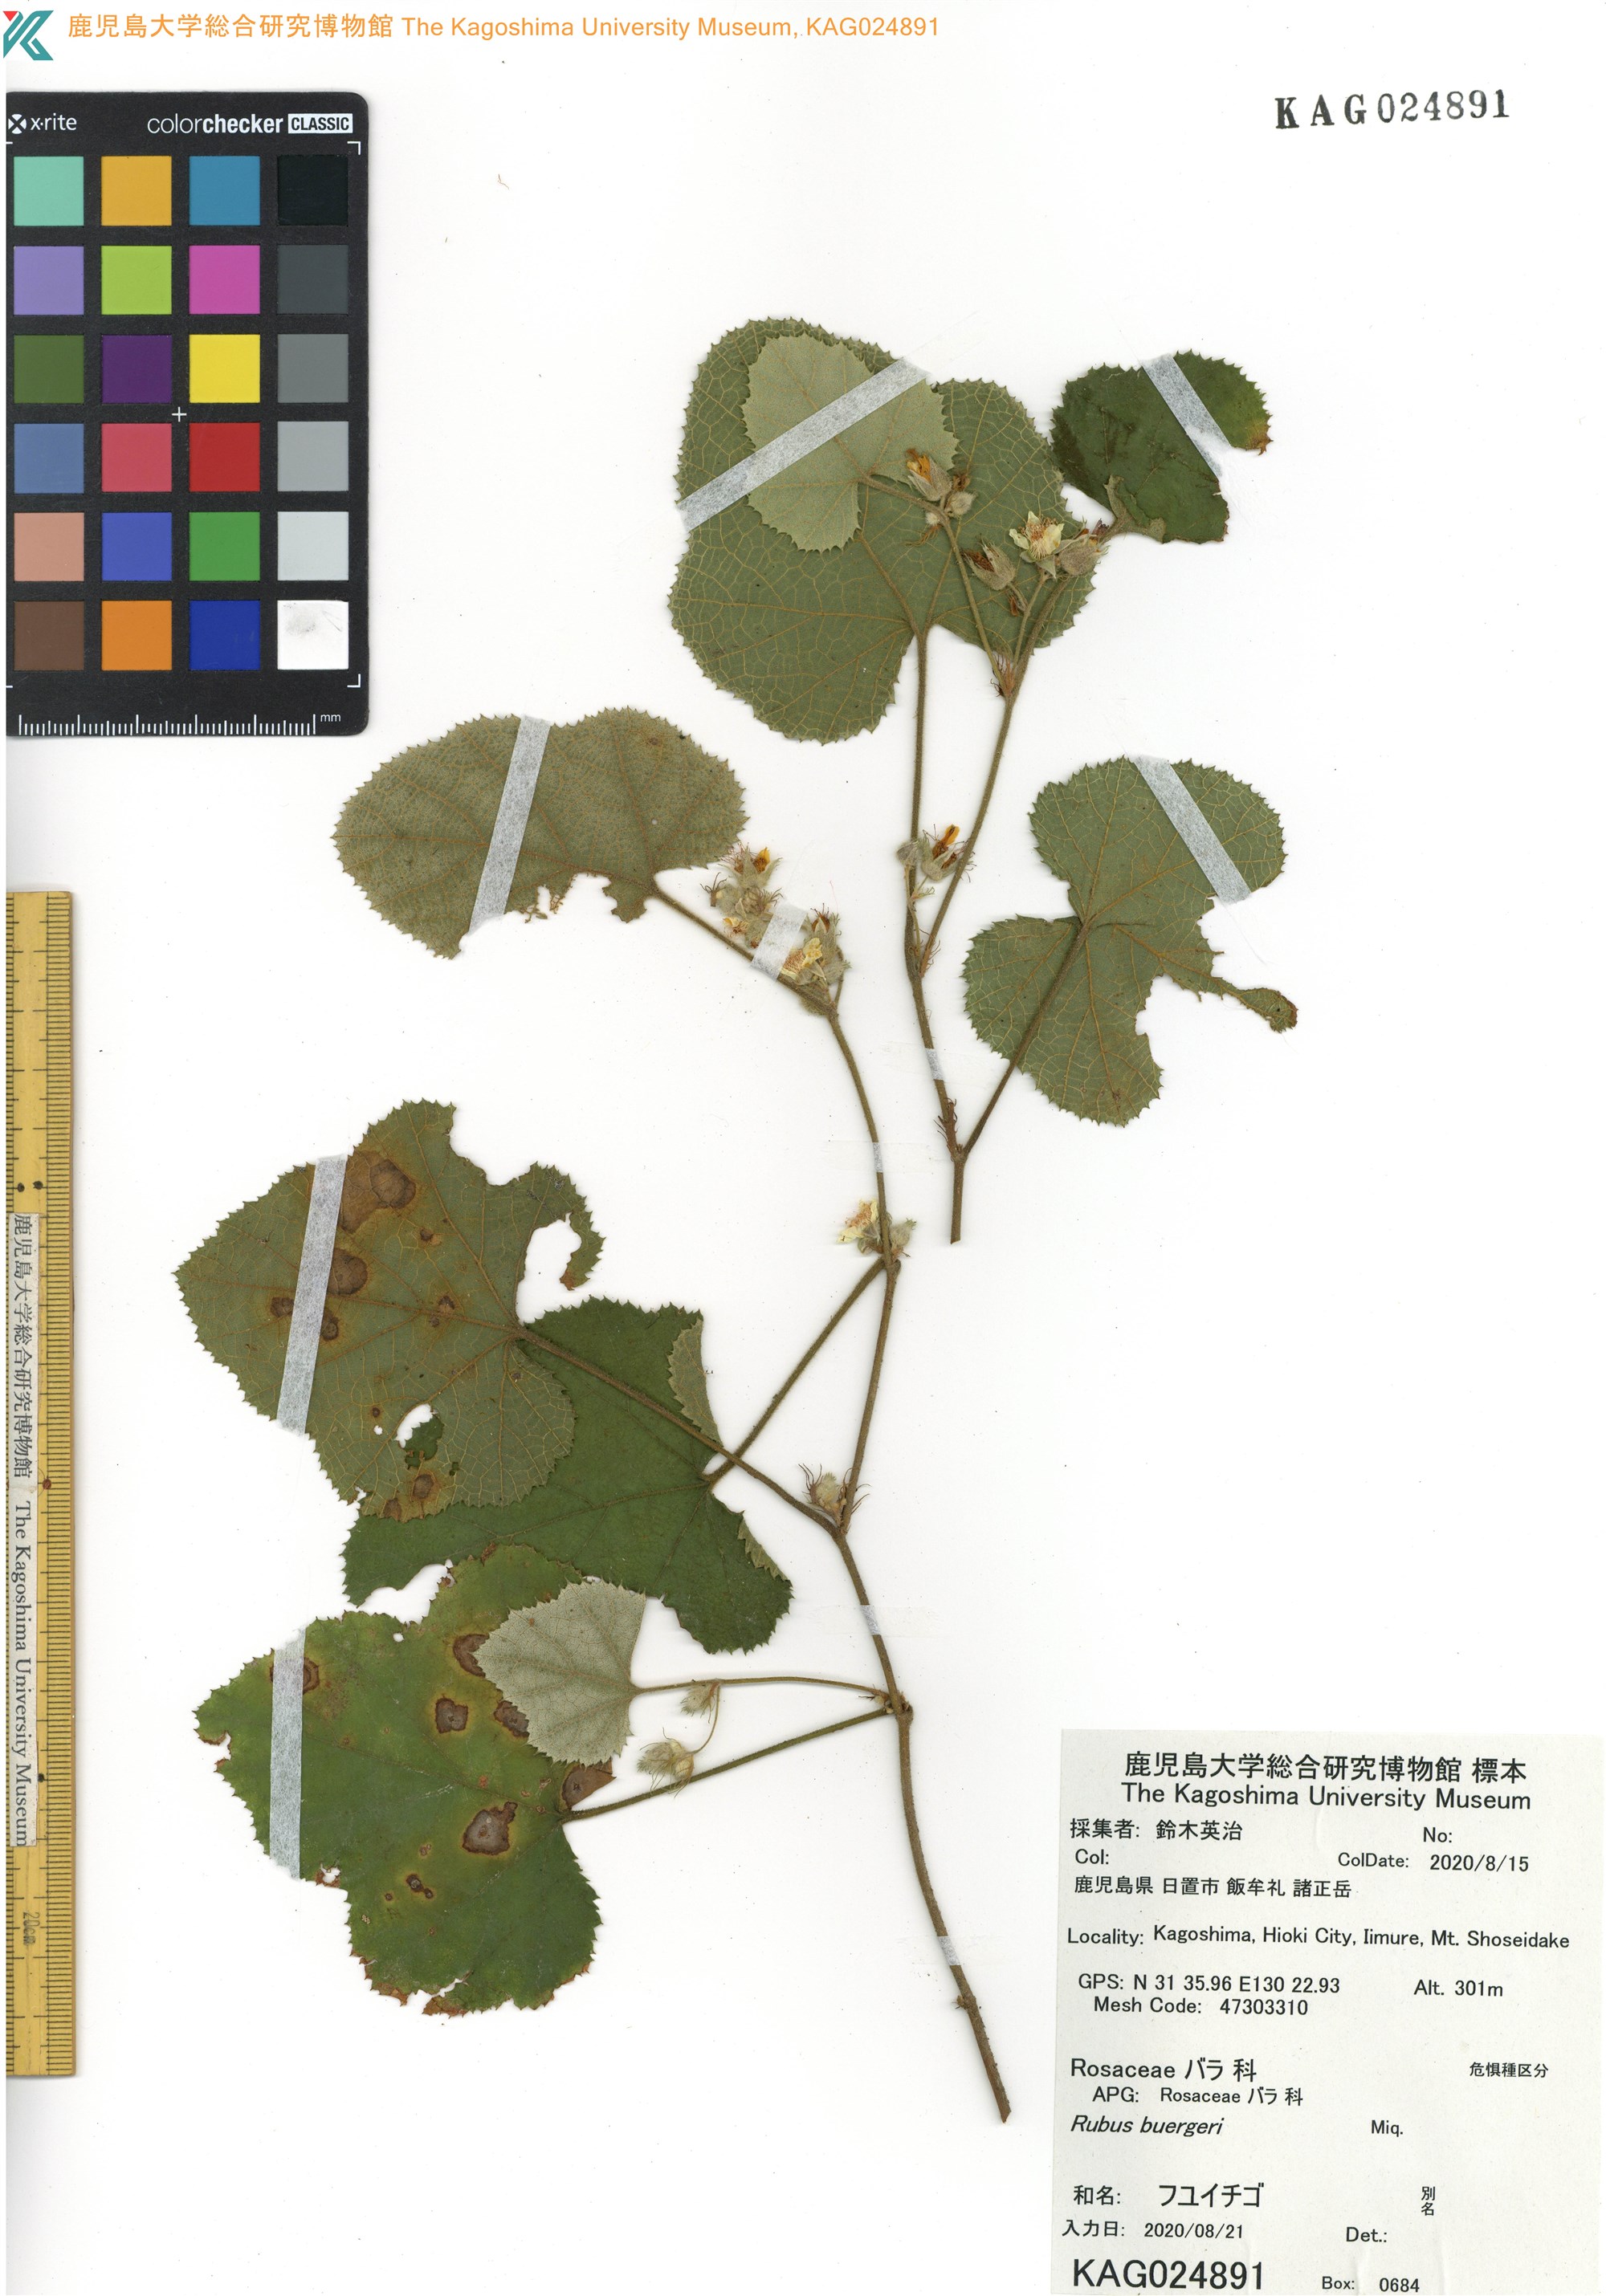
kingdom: Plantae
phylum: Tracheophyta
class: Magnoliopsida
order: Rosales
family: Rosaceae
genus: Rubus
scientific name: Rubus buergeri
